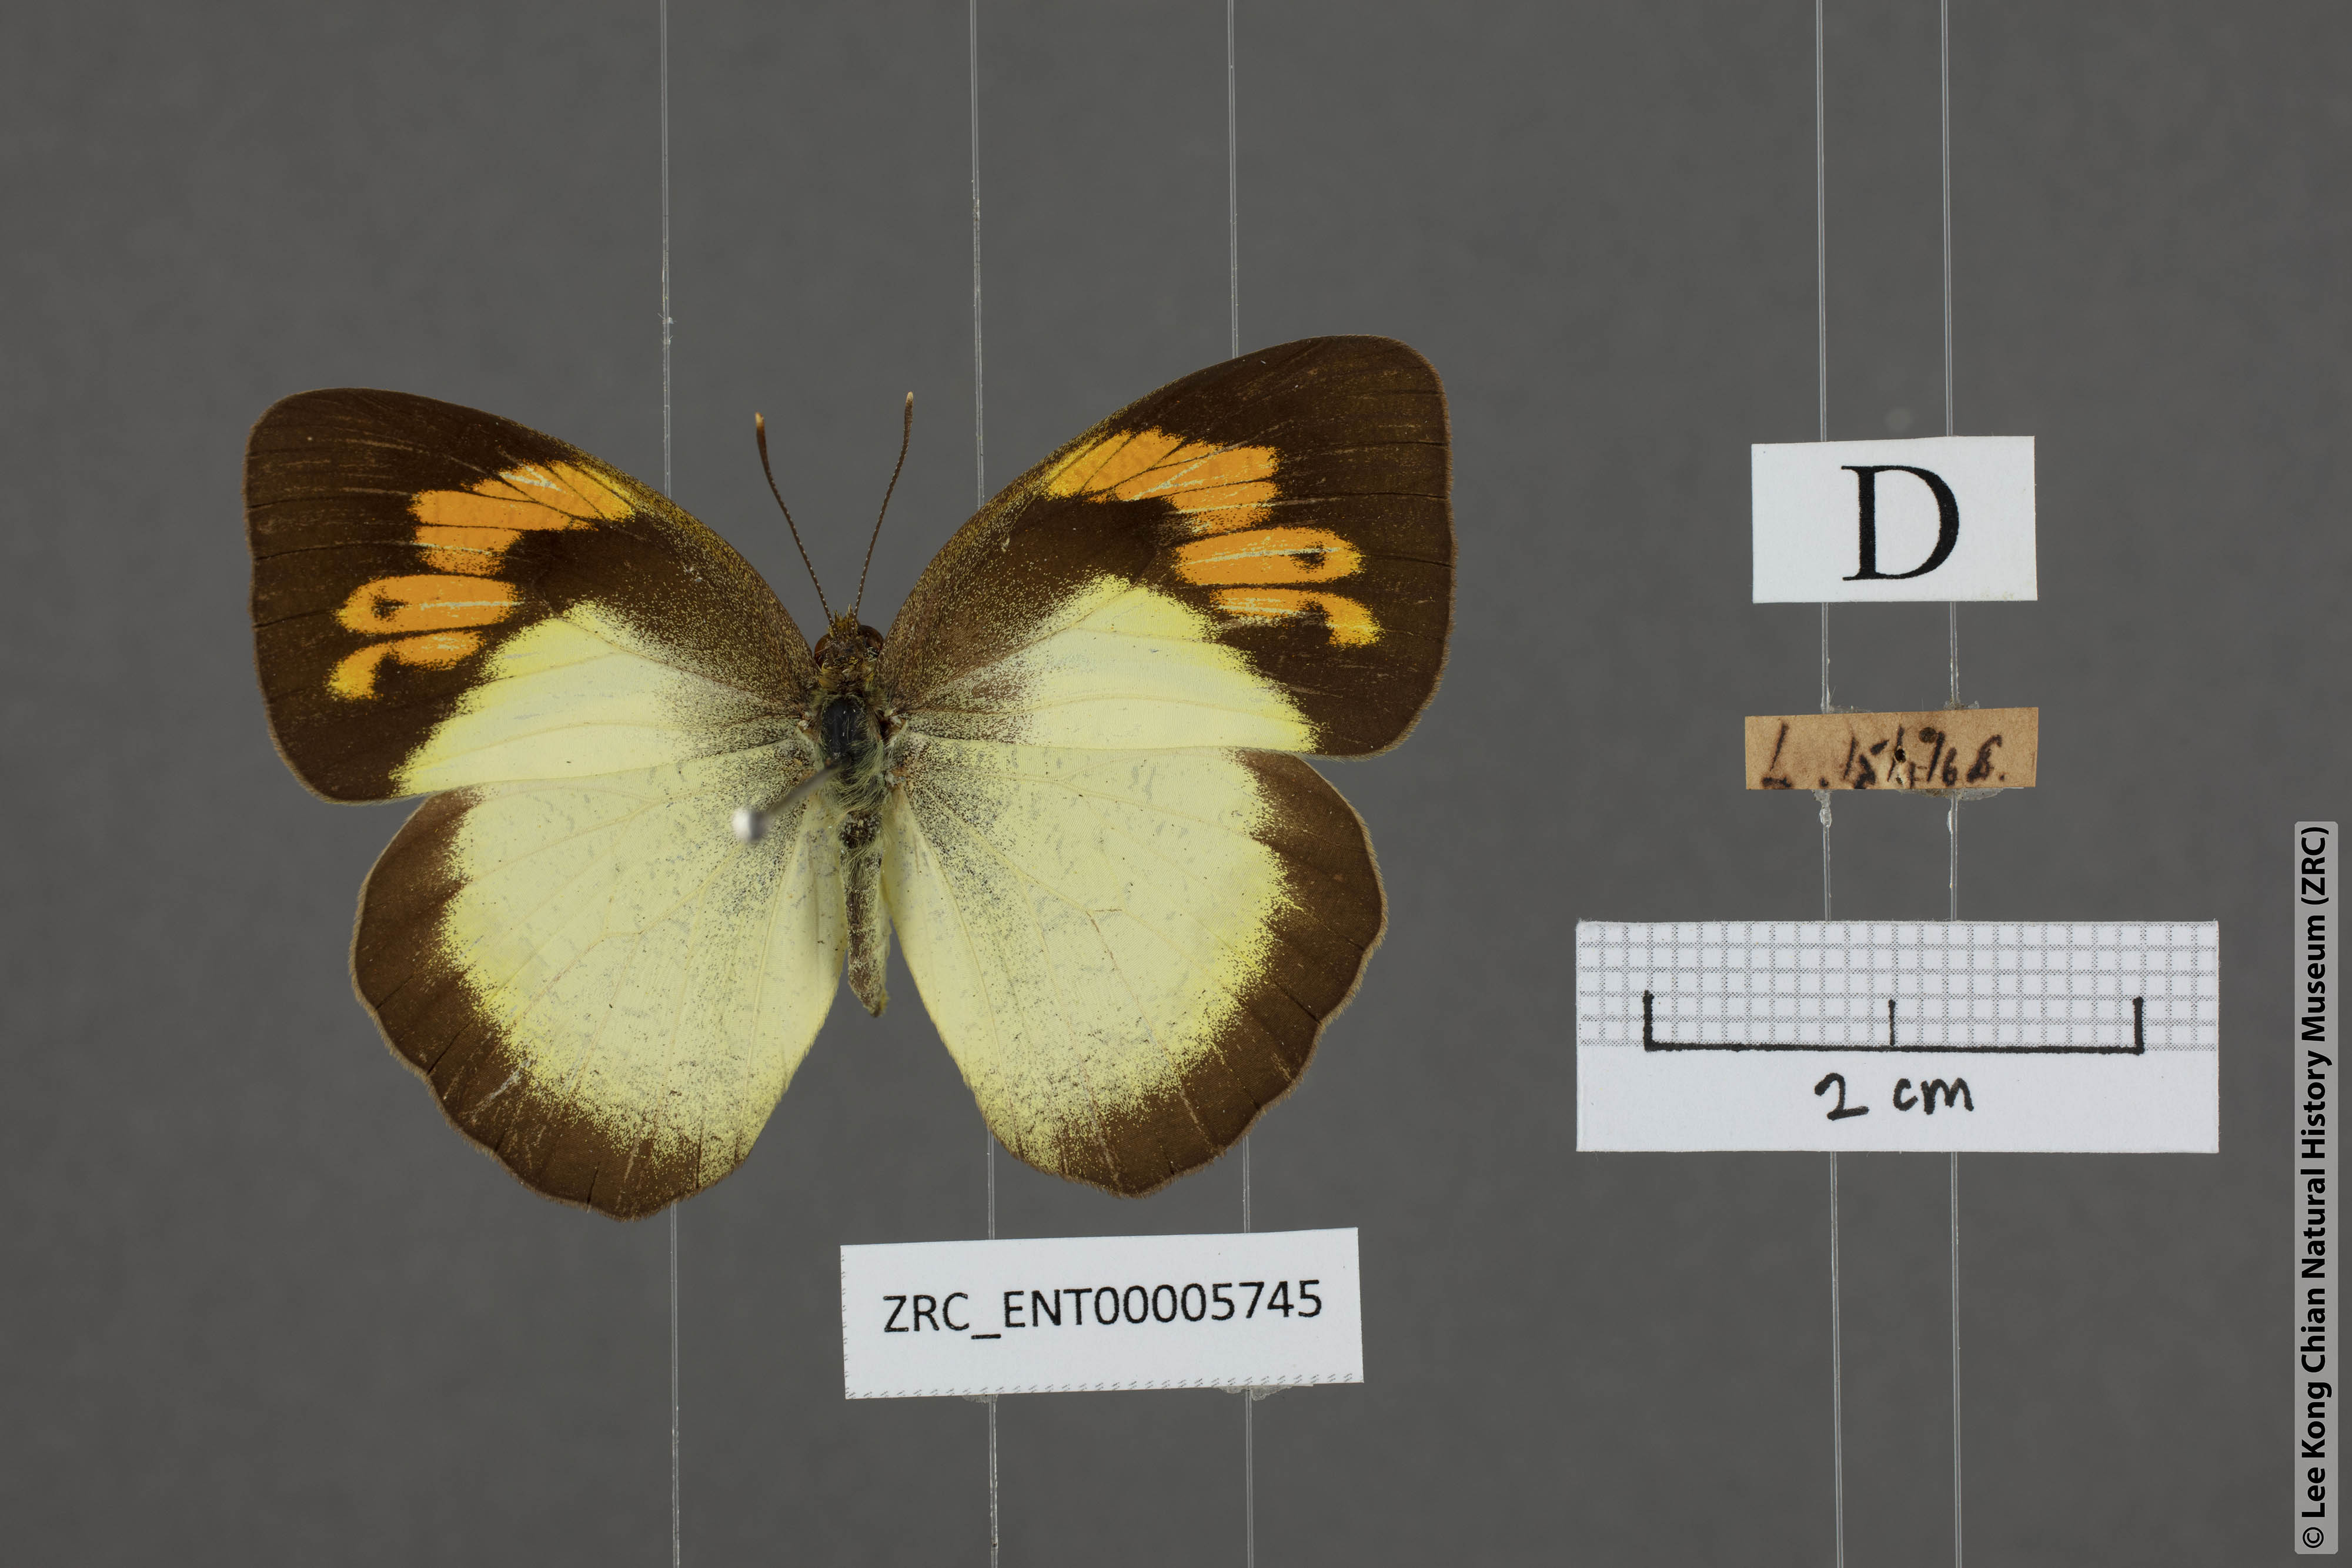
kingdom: Animalia
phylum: Arthropoda
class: Insecta
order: Lepidoptera
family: Pieridae
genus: Ixias
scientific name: Ixias pyrene
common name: Yellow orange tip
